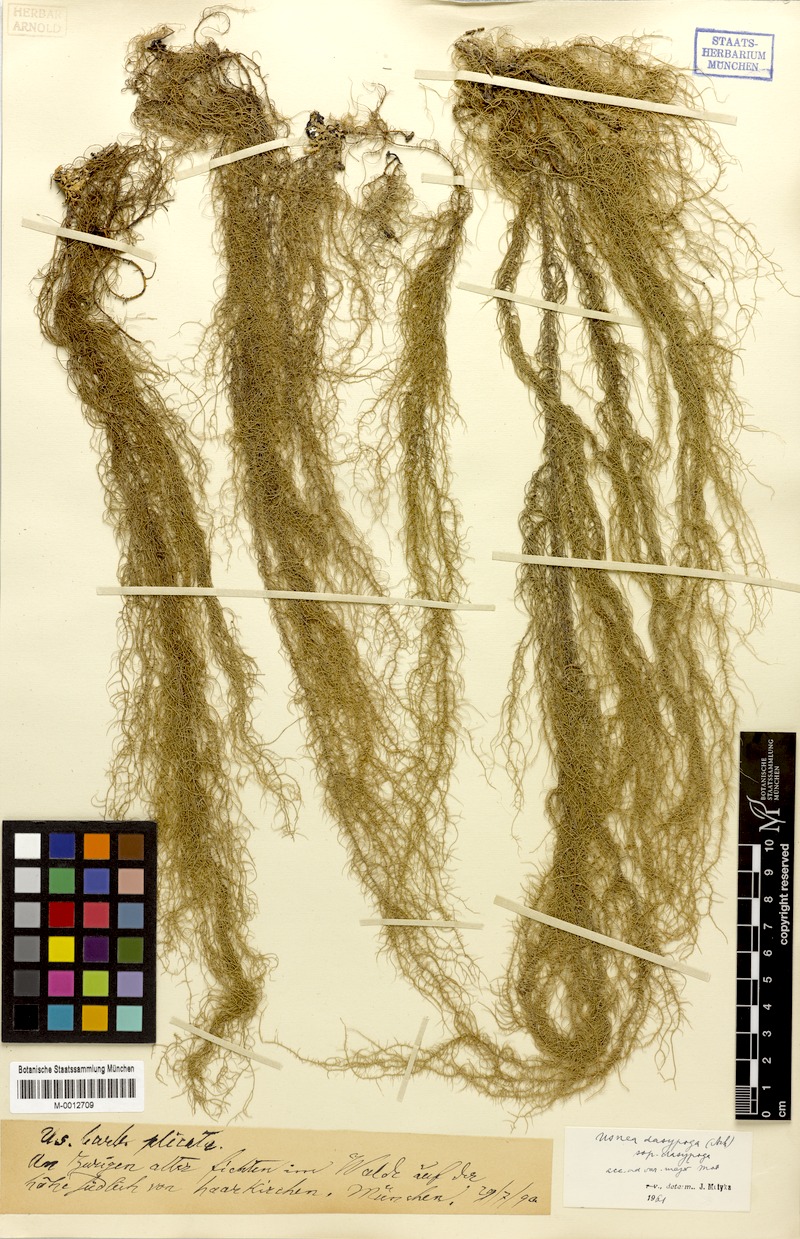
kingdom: Fungi
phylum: Ascomycota
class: Lecanoromycetes
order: Lecanorales
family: Parmeliaceae
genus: Usnea
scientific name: Usnea dasopoga
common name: Fishbone beard lichen
